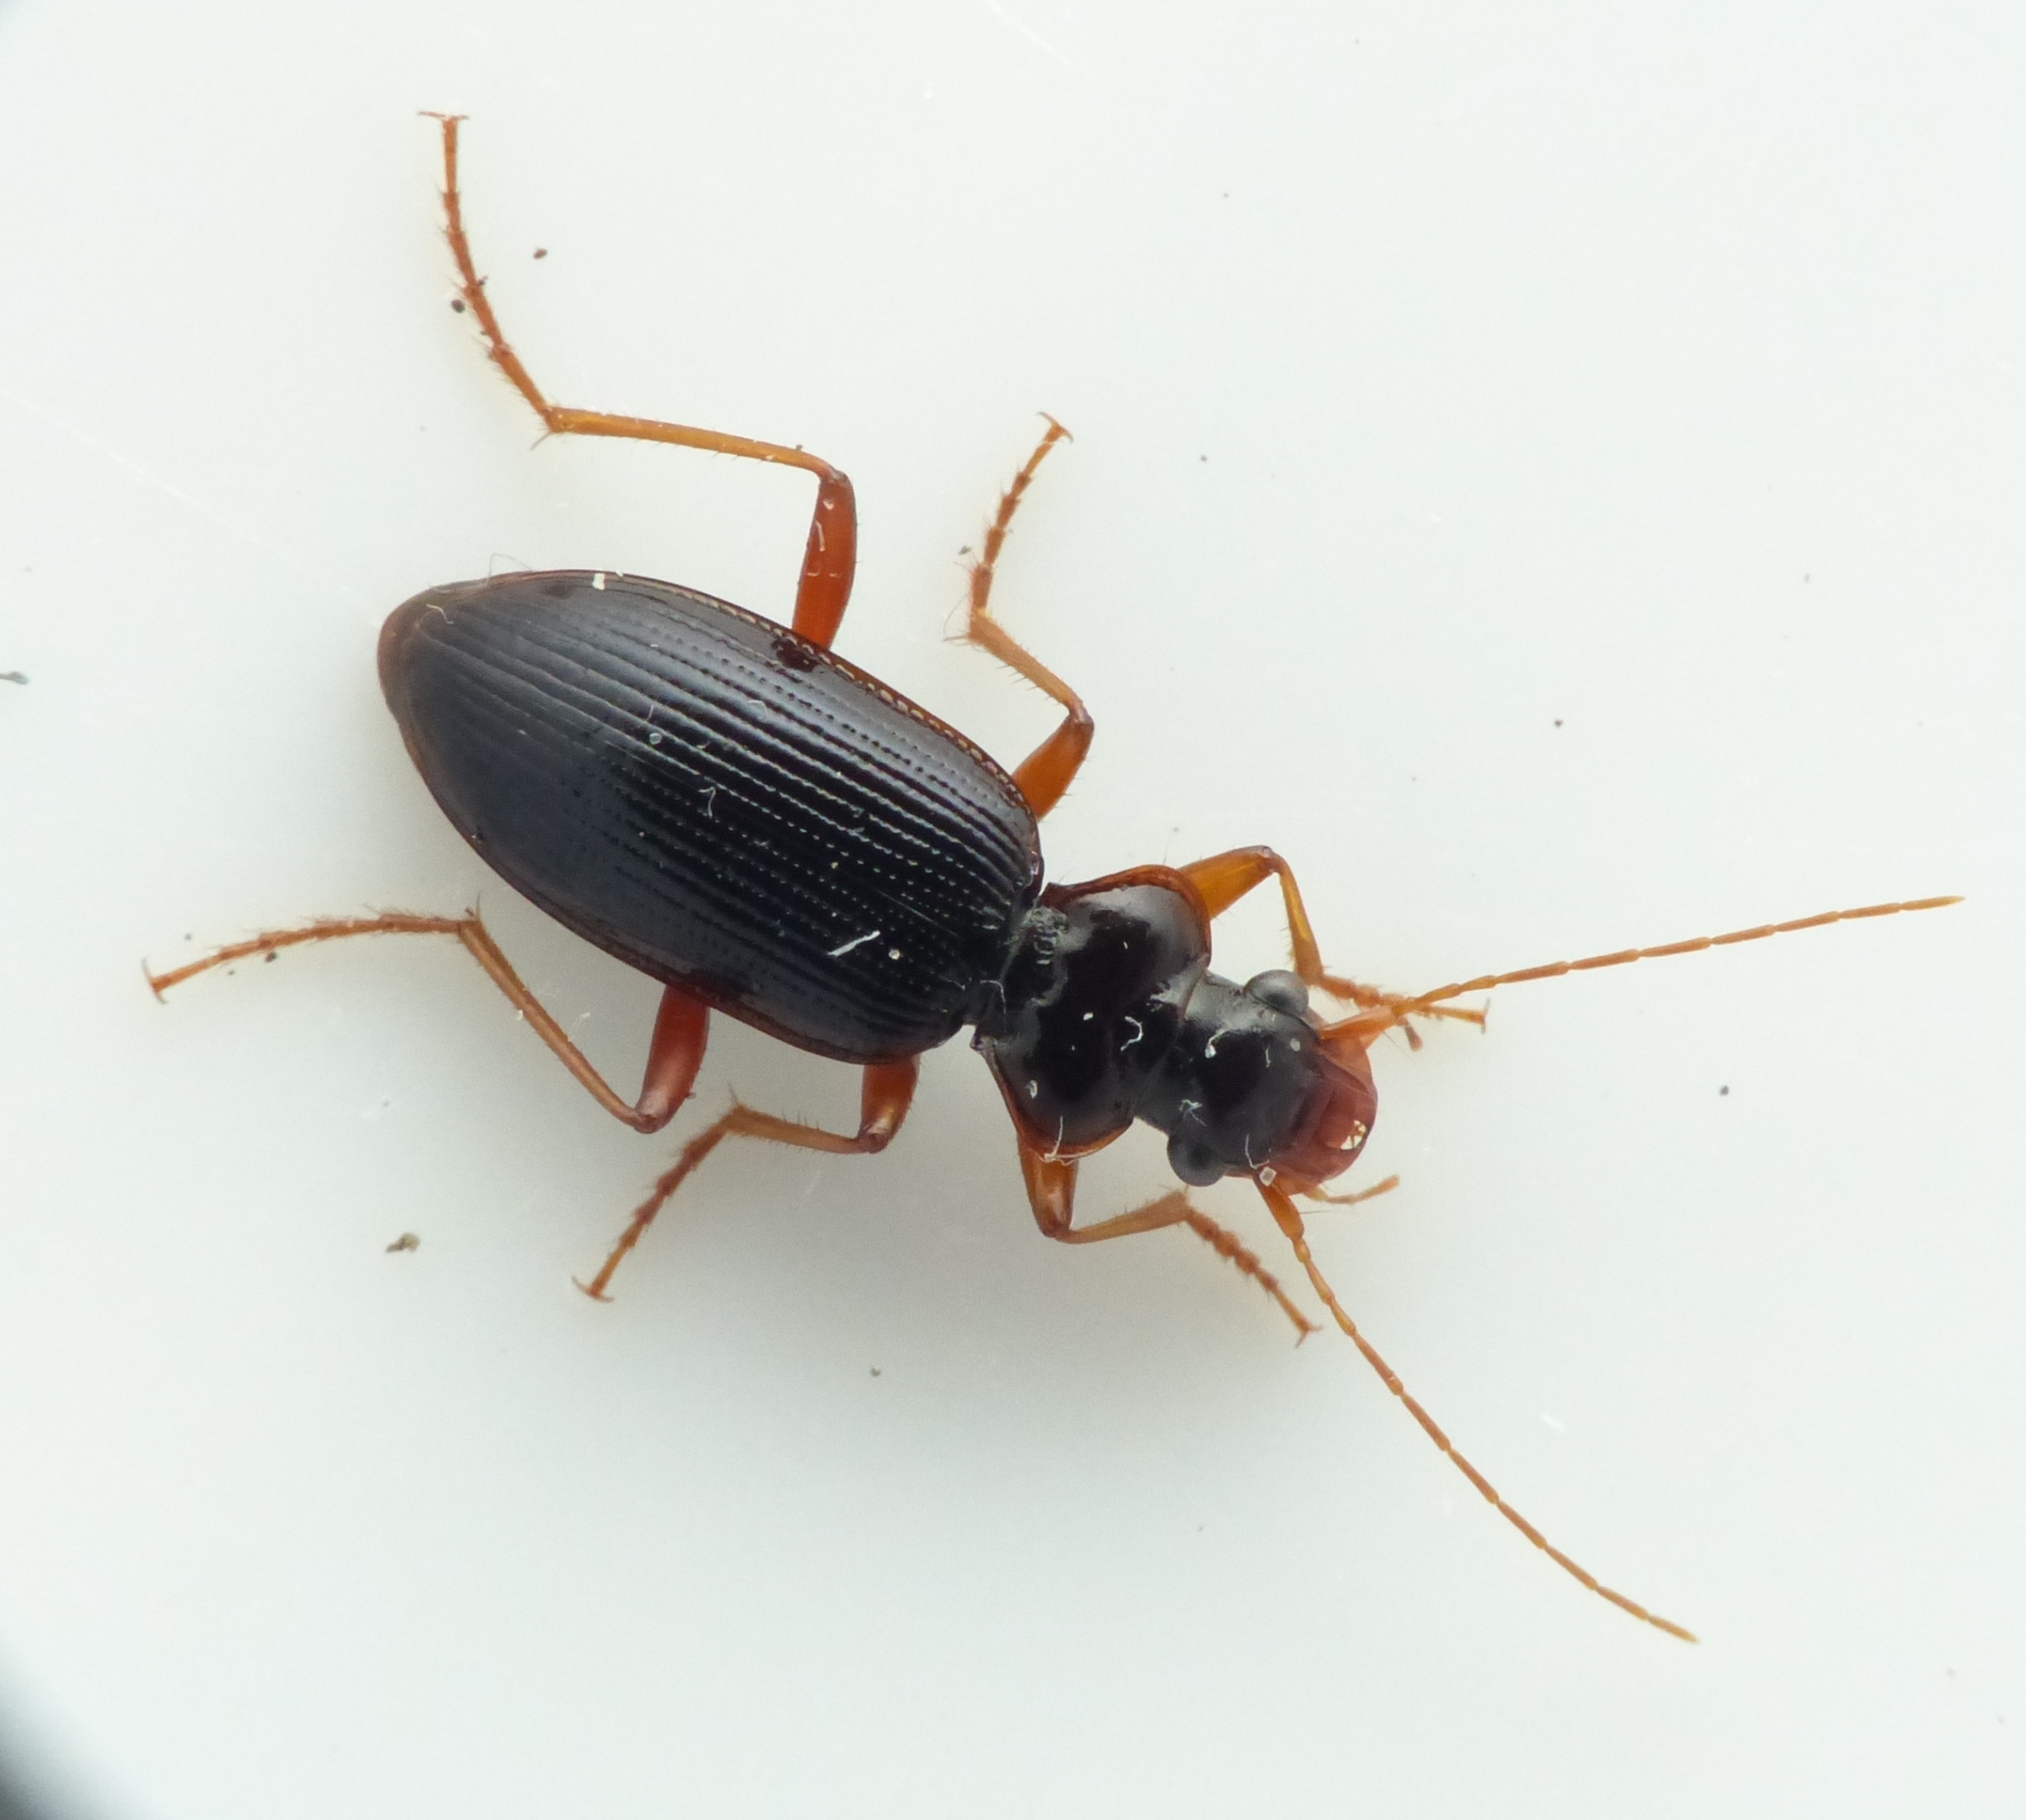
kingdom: Animalia
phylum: Arthropoda
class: Insecta
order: Coleoptera
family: Carabidae
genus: Leistus
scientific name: Leistus rufomarginatus
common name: Stor skægløber
